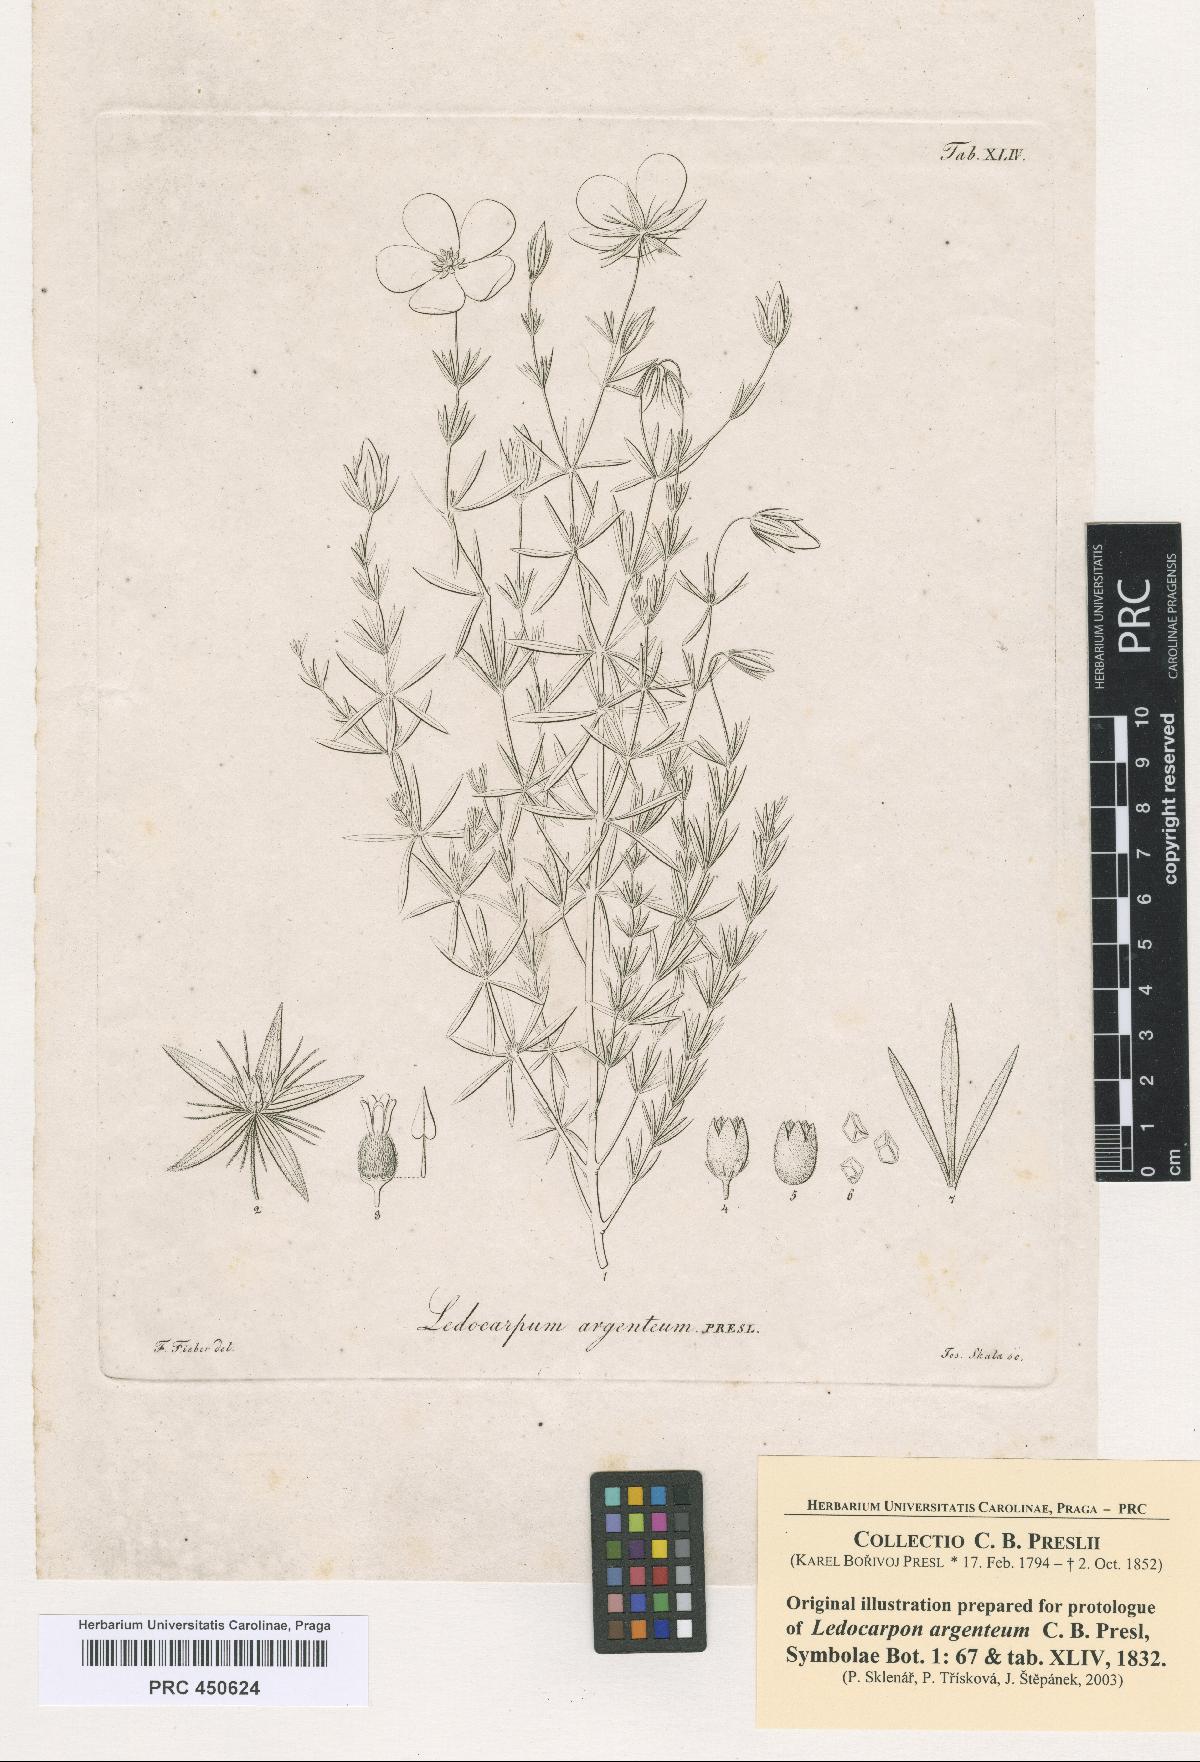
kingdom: Plantae
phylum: Tracheophyta
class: Magnoliopsida
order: Geraniales
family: Vivianiaceae
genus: Balbisia
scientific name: Balbisia verticillata
